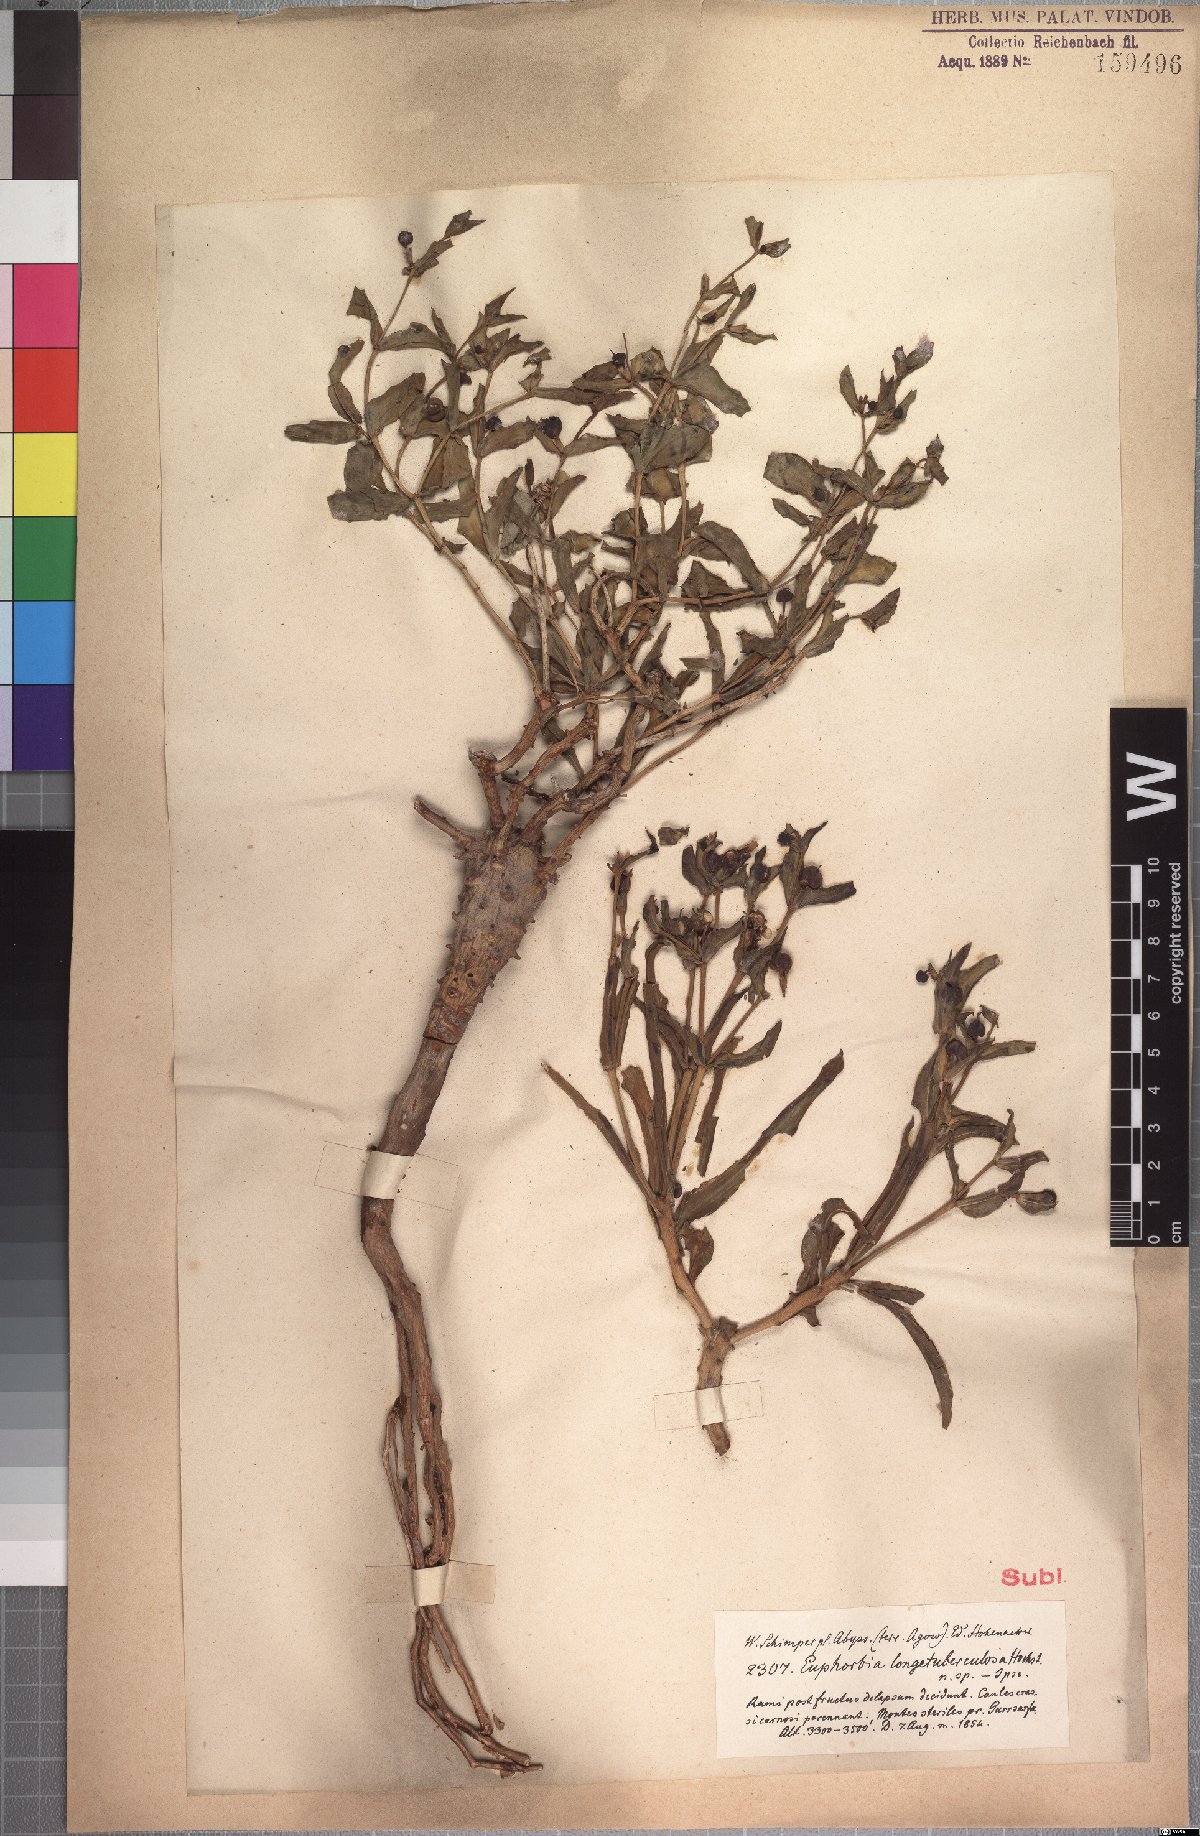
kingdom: Plantae
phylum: Tracheophyta
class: Magnoliopsida
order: Malpighiales
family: Euphorbiaceae
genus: Euphorbia
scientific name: Euphorbia longituberculosa
